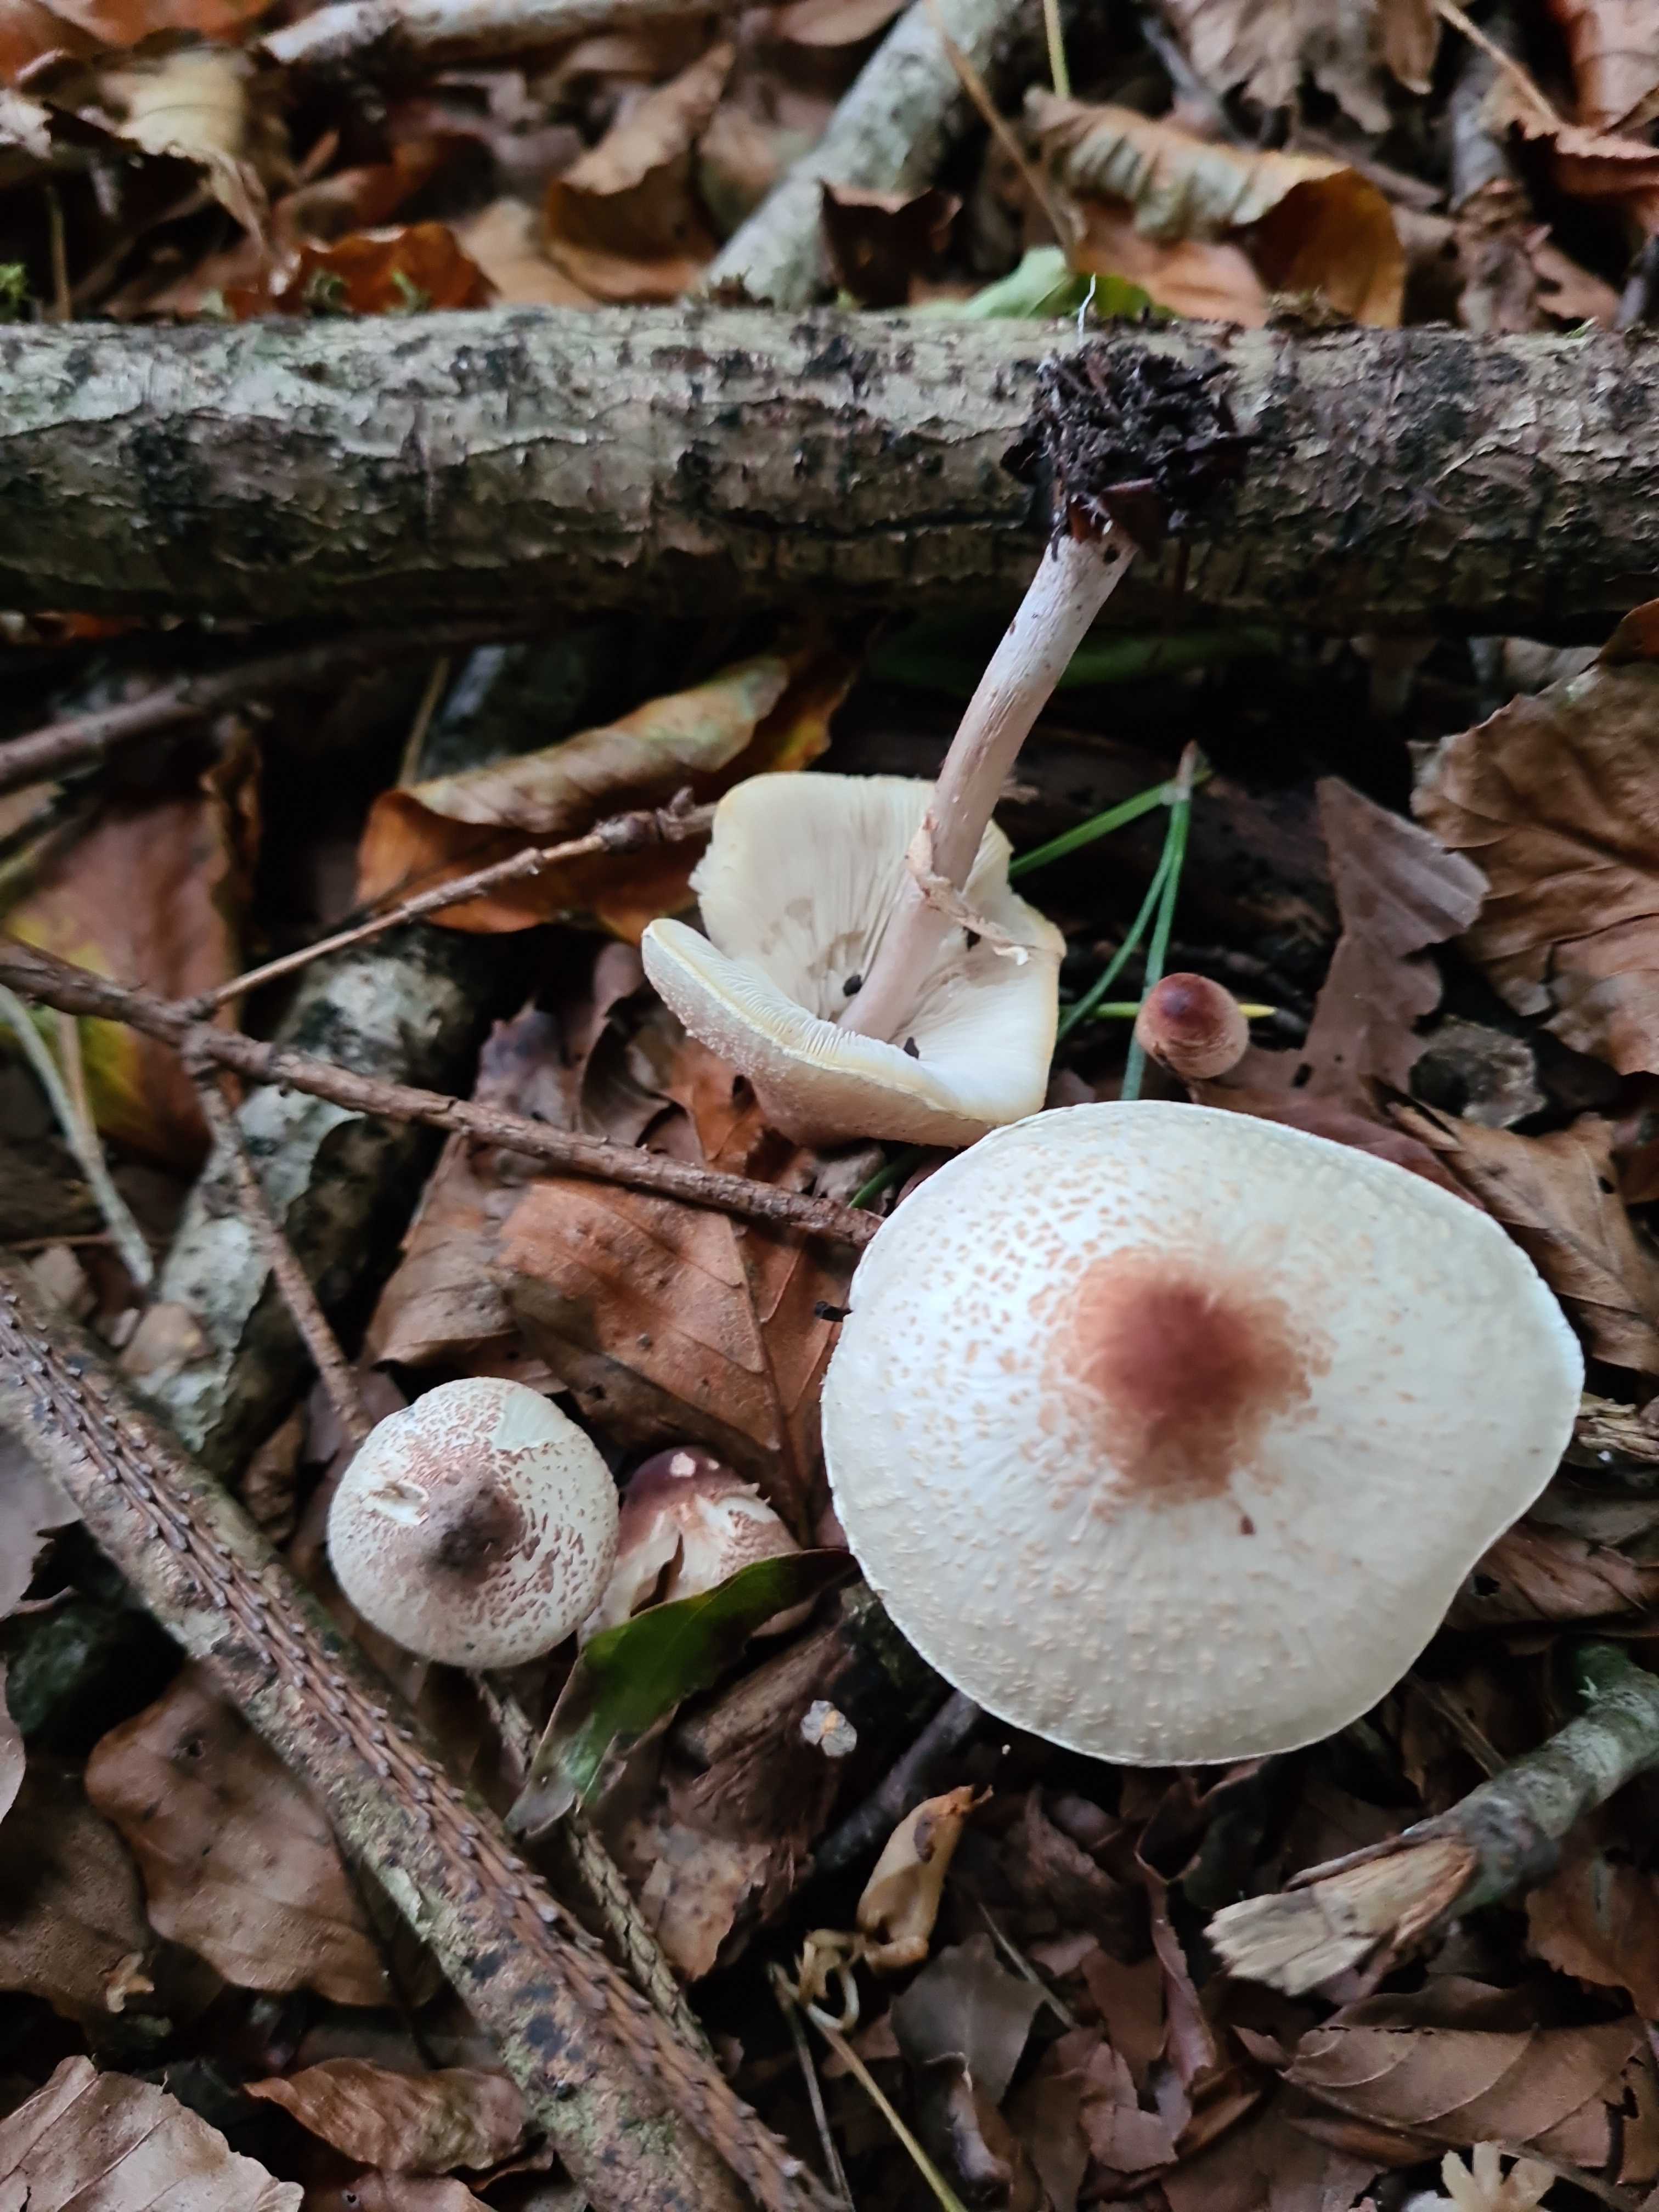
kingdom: Fungi
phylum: Basidiomycota
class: Agaricomycetes
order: Agaricales
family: Agaricaceae
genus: Lepiota
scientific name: Lepiota cristata
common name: stinkende parasolhat
